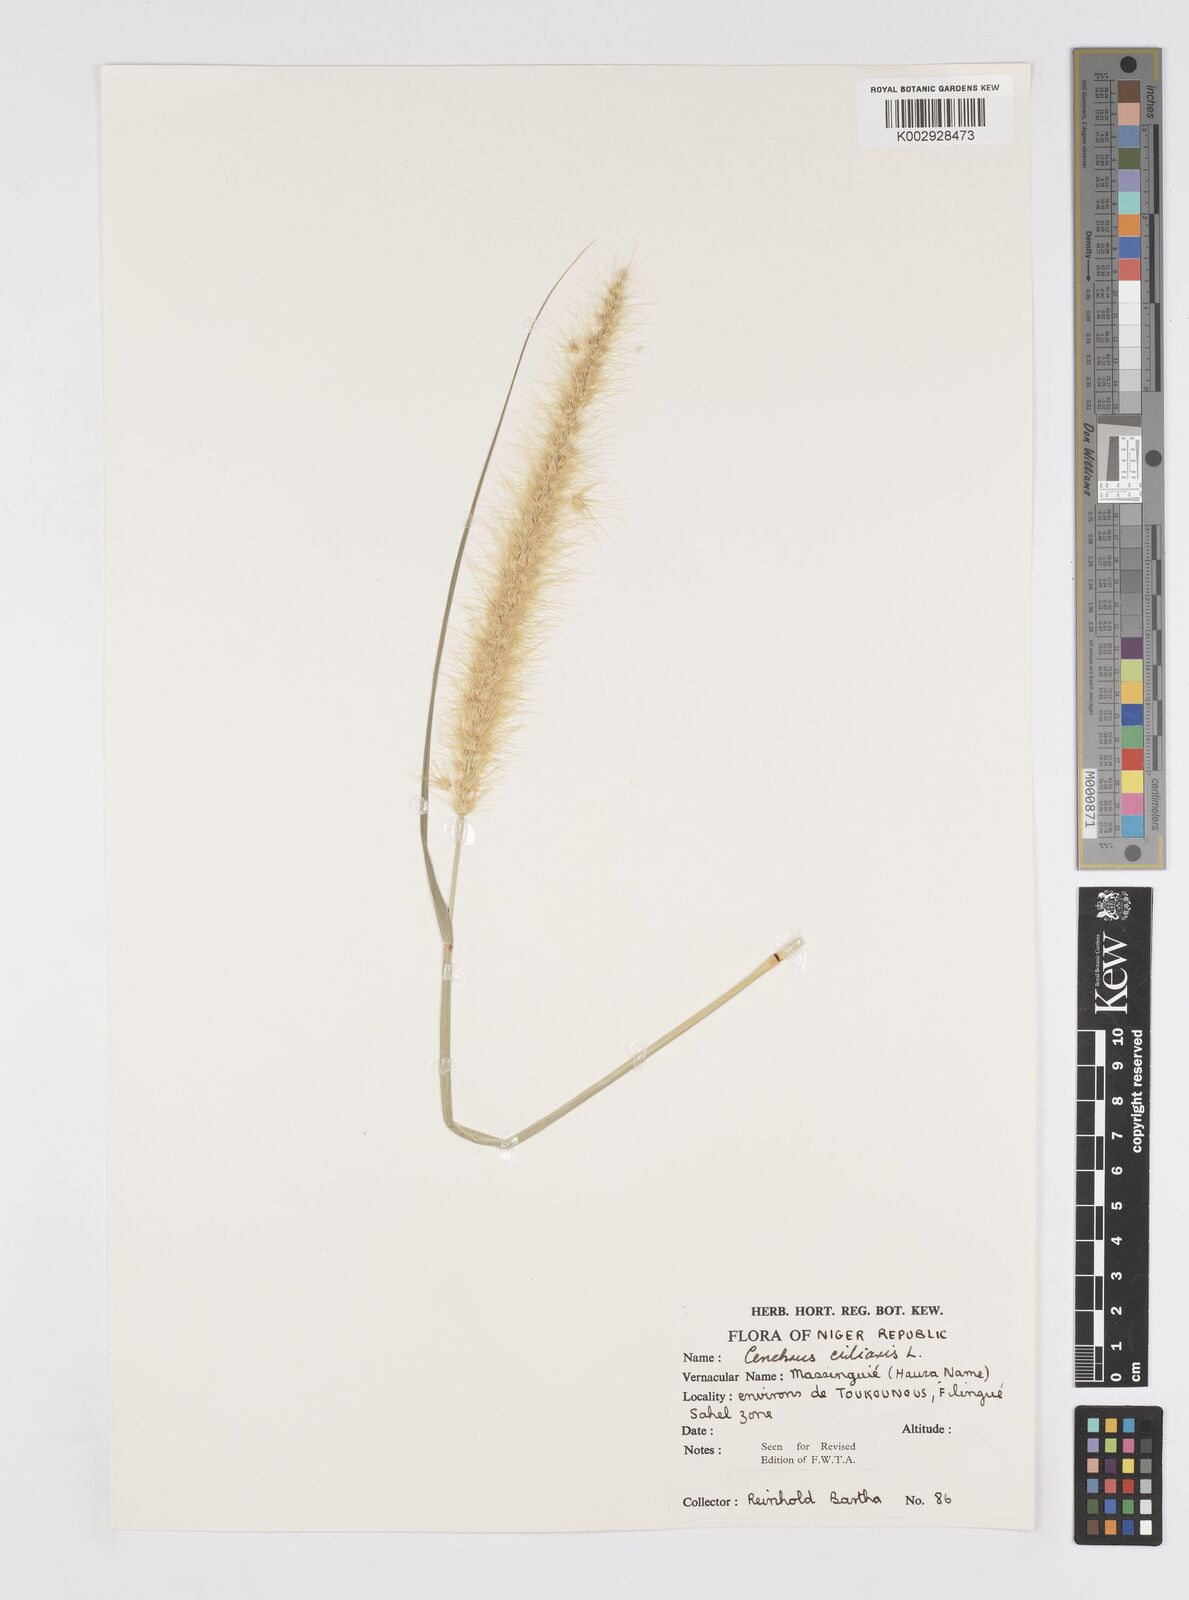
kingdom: Plantae
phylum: Tracheophyta
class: Liliopsida
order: Poales
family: Poaceae
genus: Cenchrus
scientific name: Cenchrus ciliaris
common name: Buffelgrass
